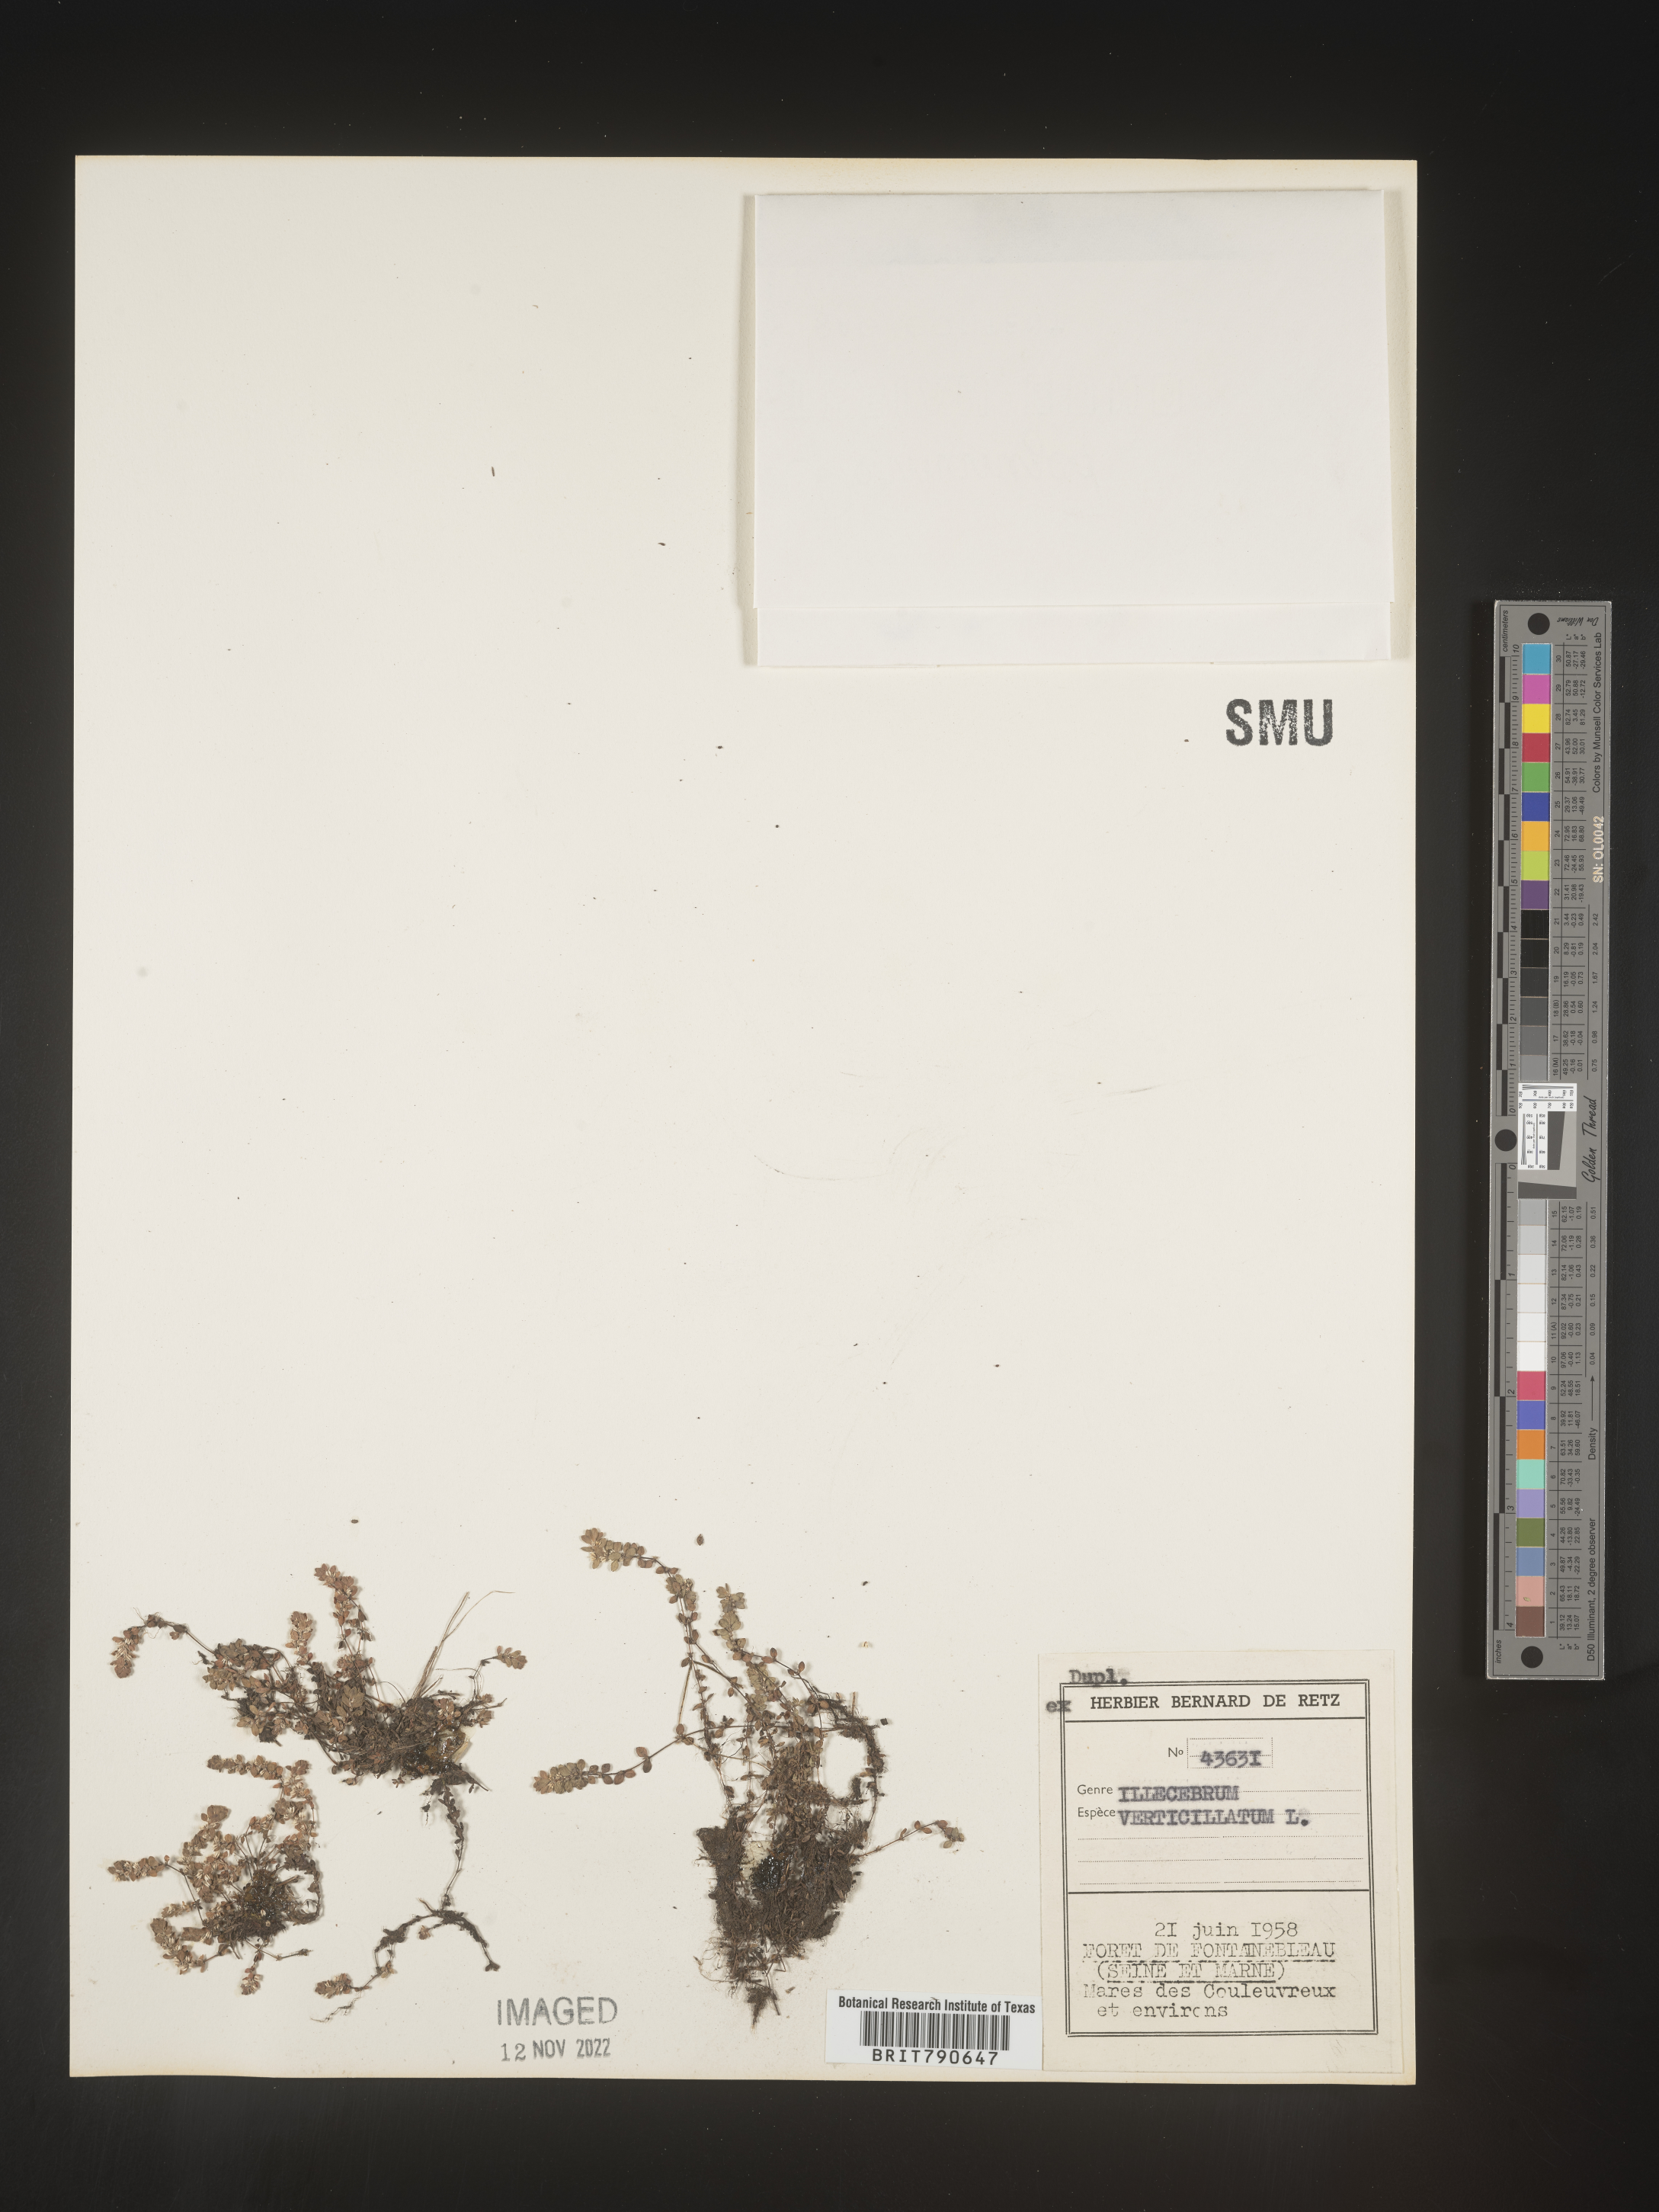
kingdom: Plantae
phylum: Tracheophyta
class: Magnoliopsida
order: Caryophyllales
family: Caryophyllaceae
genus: Illecebrum
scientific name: Illecebrum
